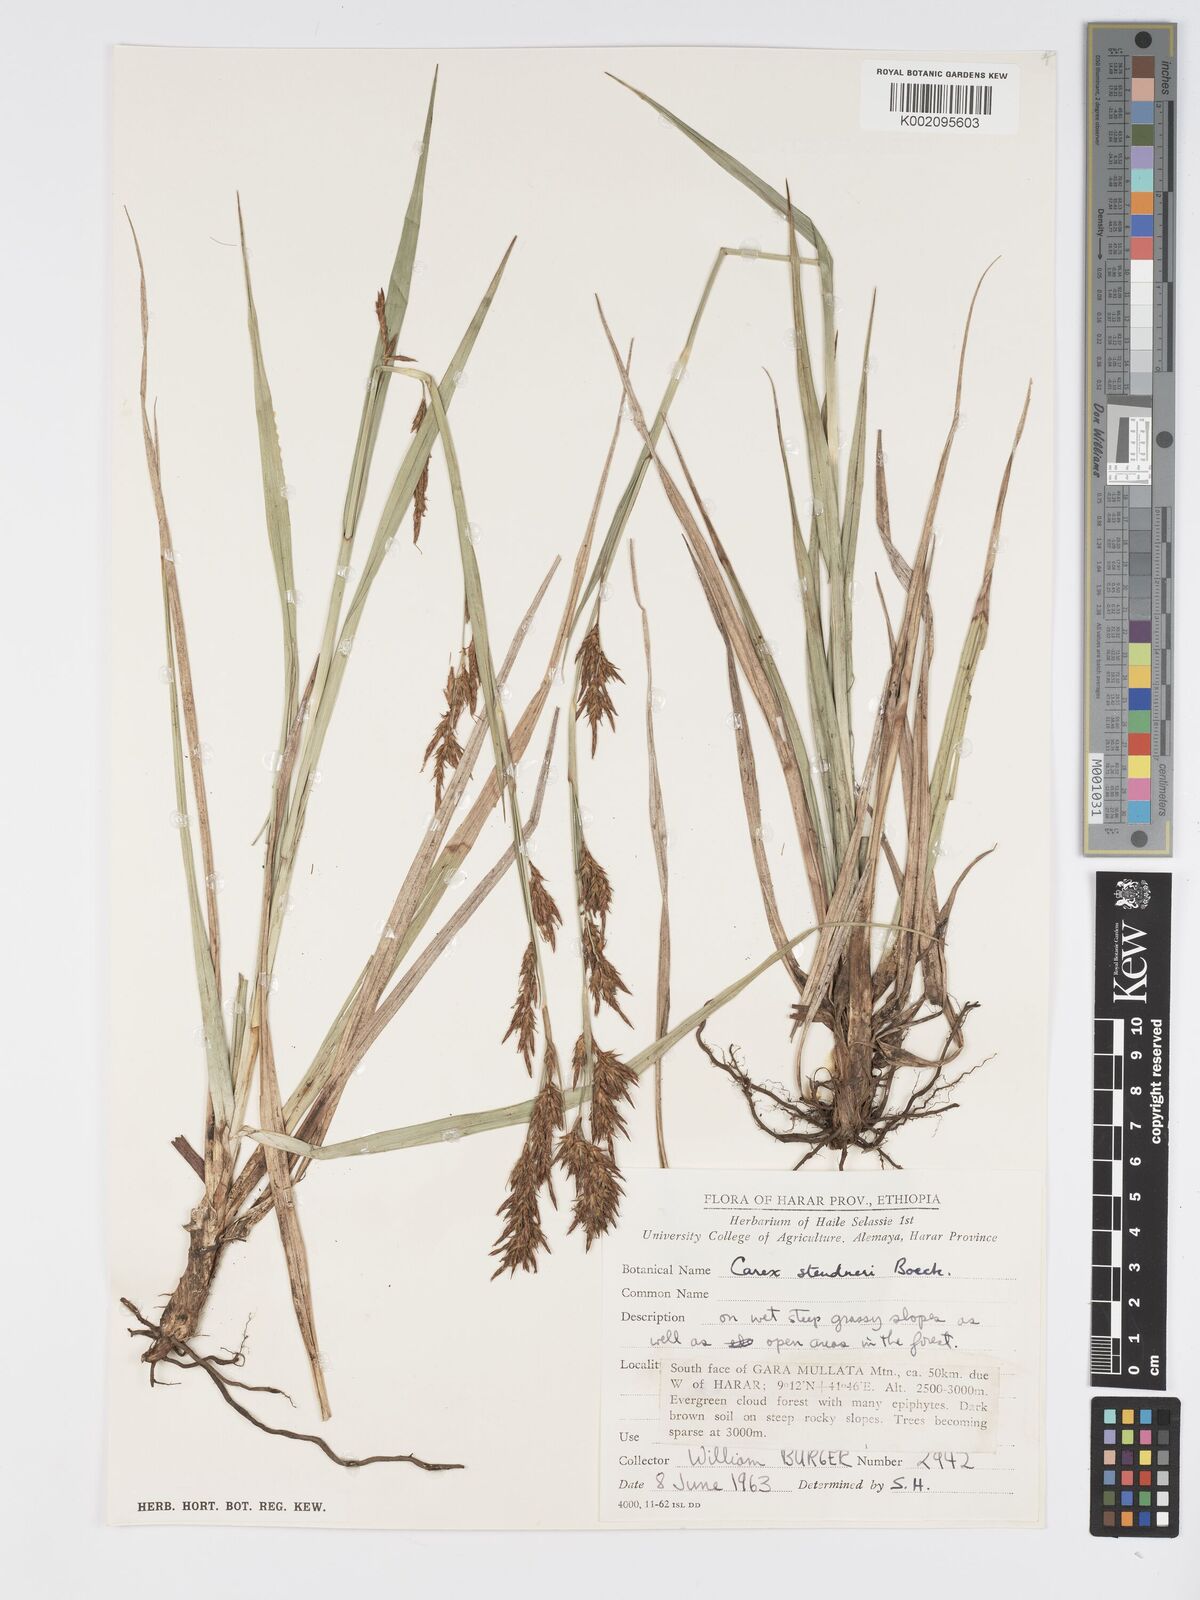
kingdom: Plantae
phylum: Tracheophyta
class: Liliopsida
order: Poales
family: Cyperaceae
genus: Carex
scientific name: Carex steudneri
